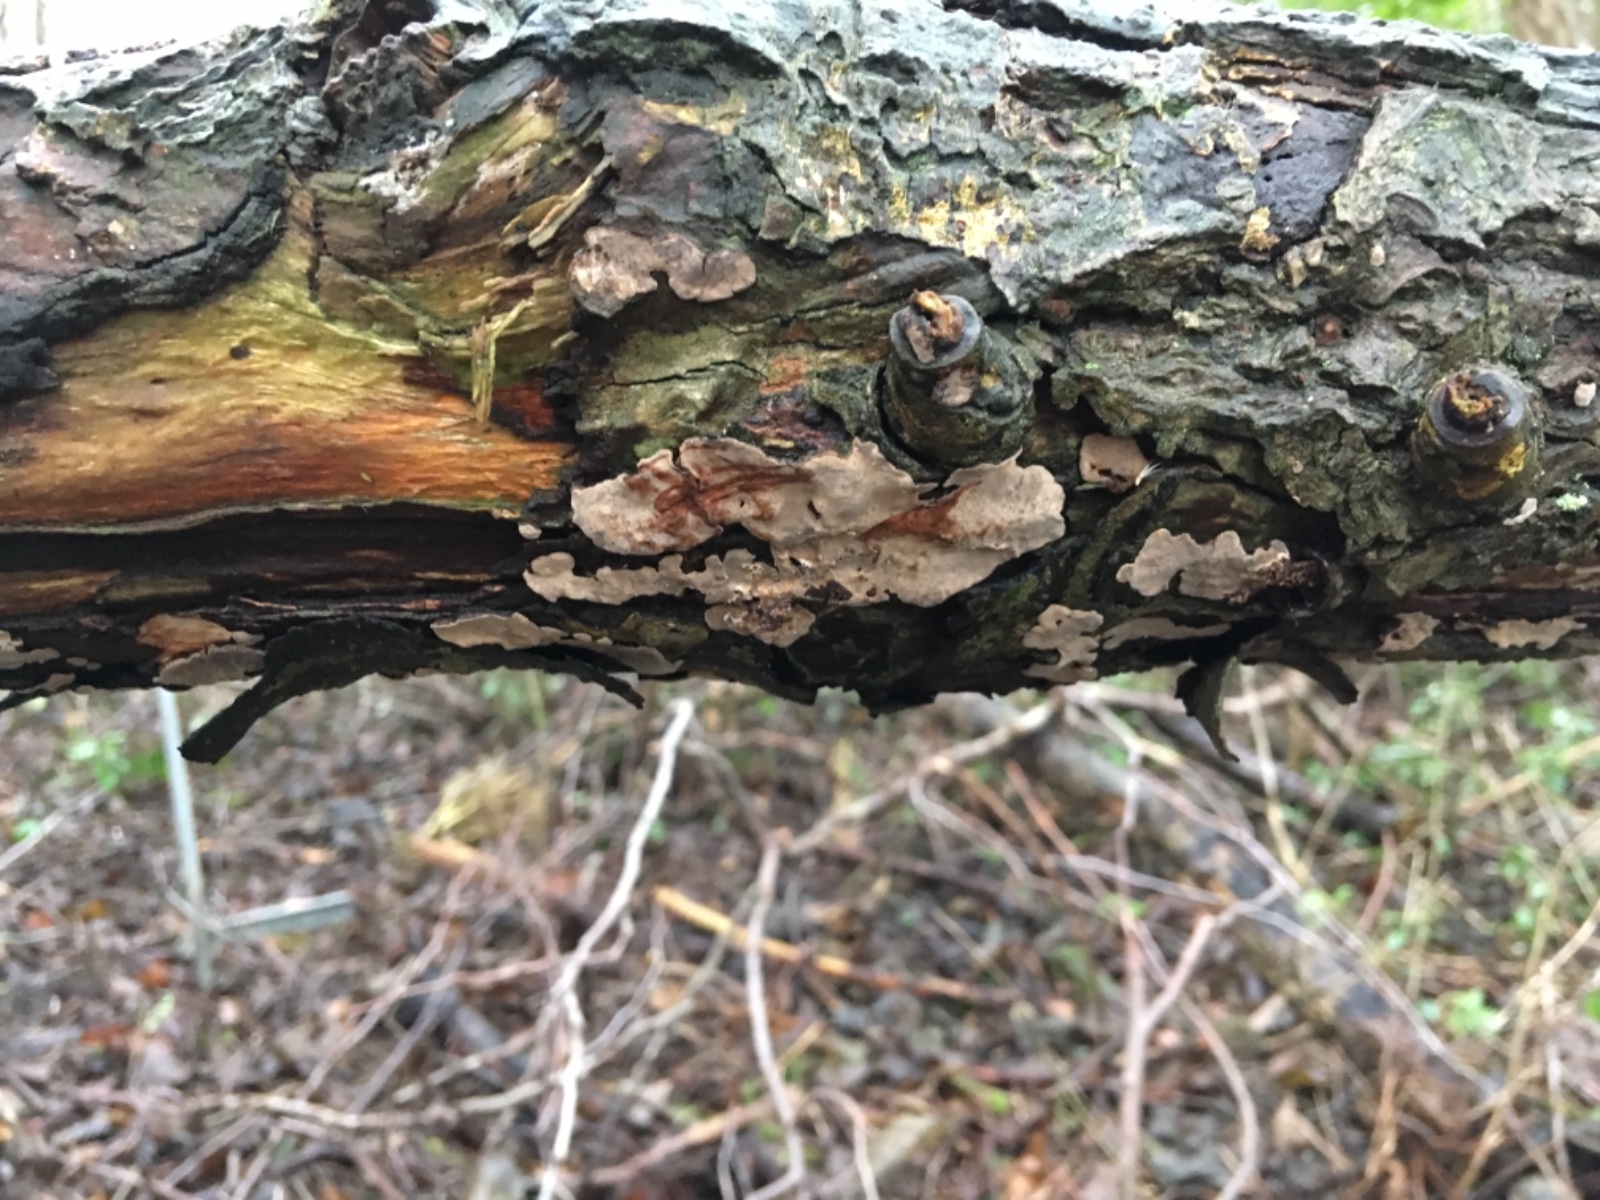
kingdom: Fungi
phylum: Basidiomycota
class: Agaricomycetes
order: Russulales
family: Stereaceae
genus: Stereum
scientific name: Stereum rugosum
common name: rynket lædersvamp
